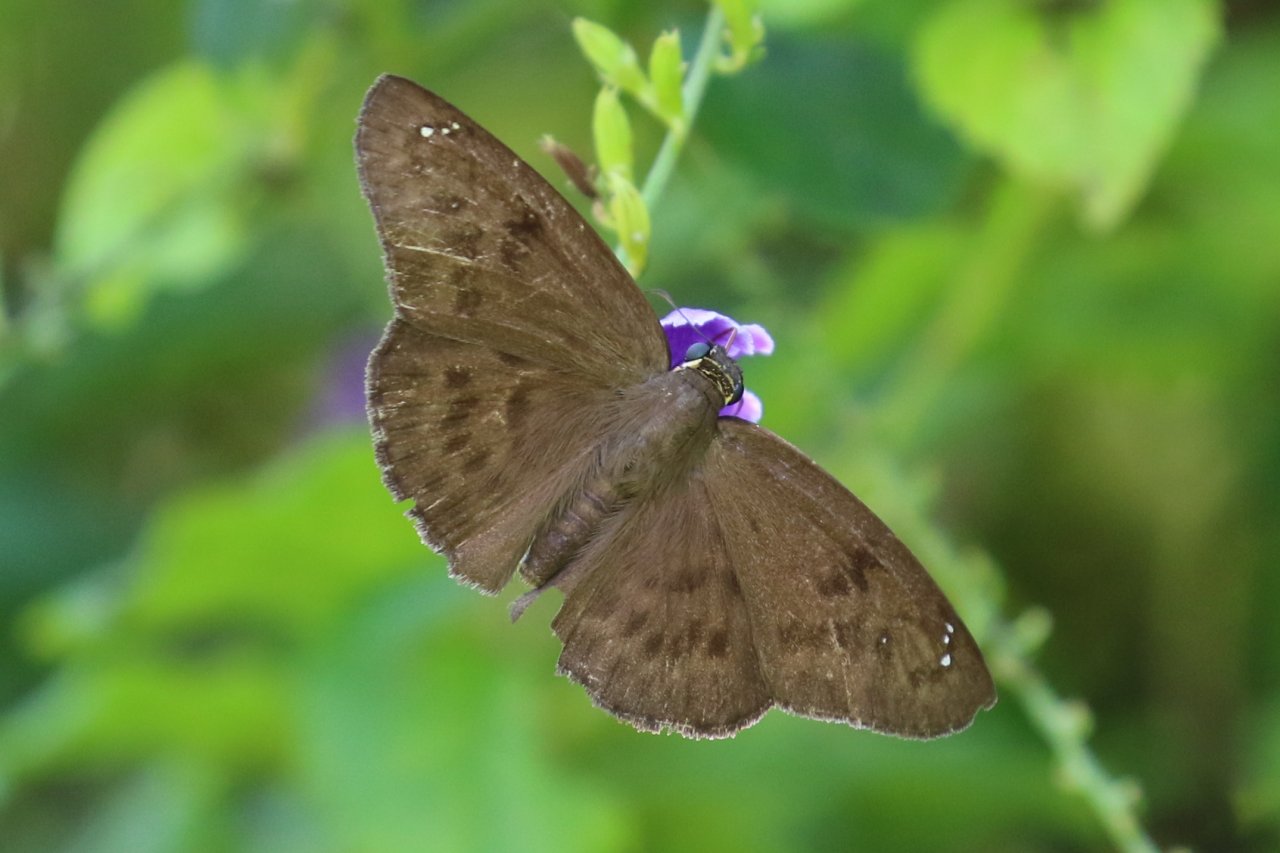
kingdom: Animalia
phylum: Arthropoda
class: Insecta
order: Lepidoptera
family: Hesperiidae
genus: Grais
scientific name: Grais stigmaticus
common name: Hermit Skipper
